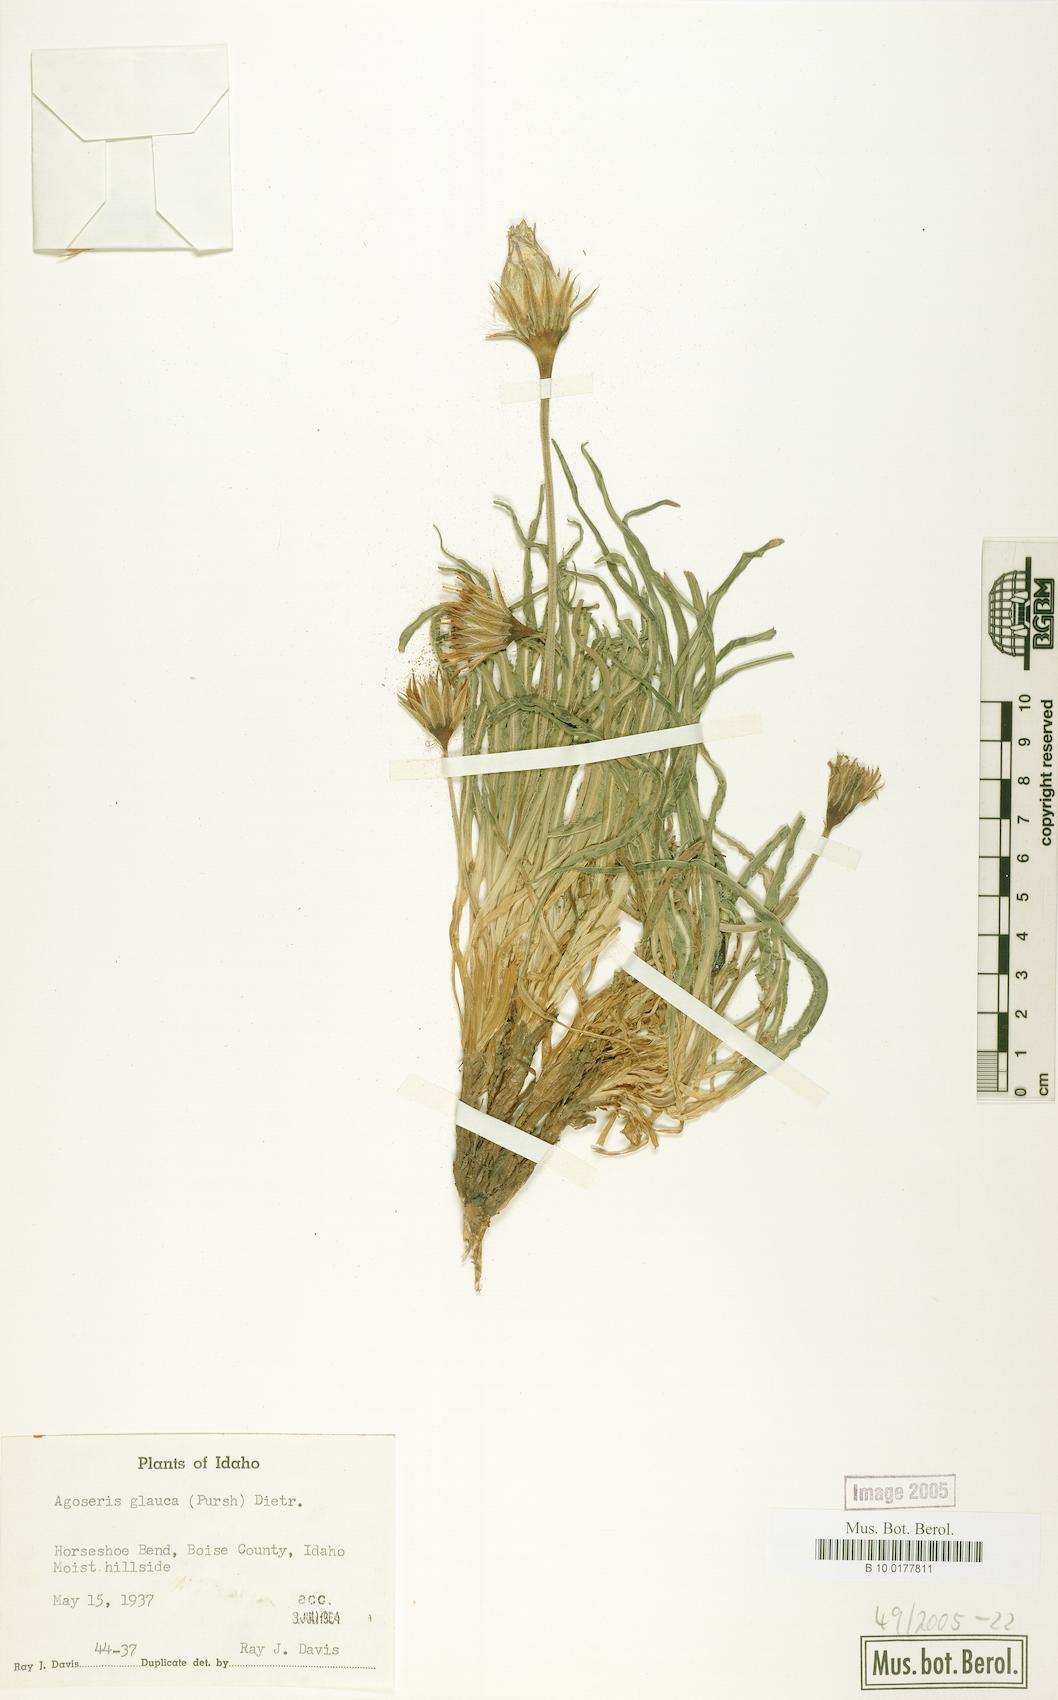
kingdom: Plantae
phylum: Tracheophyta
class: Magnoliopsida
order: Asterales
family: Asteraceae
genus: Agoseris
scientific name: Agoseris glauca
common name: Prairie agoseris
